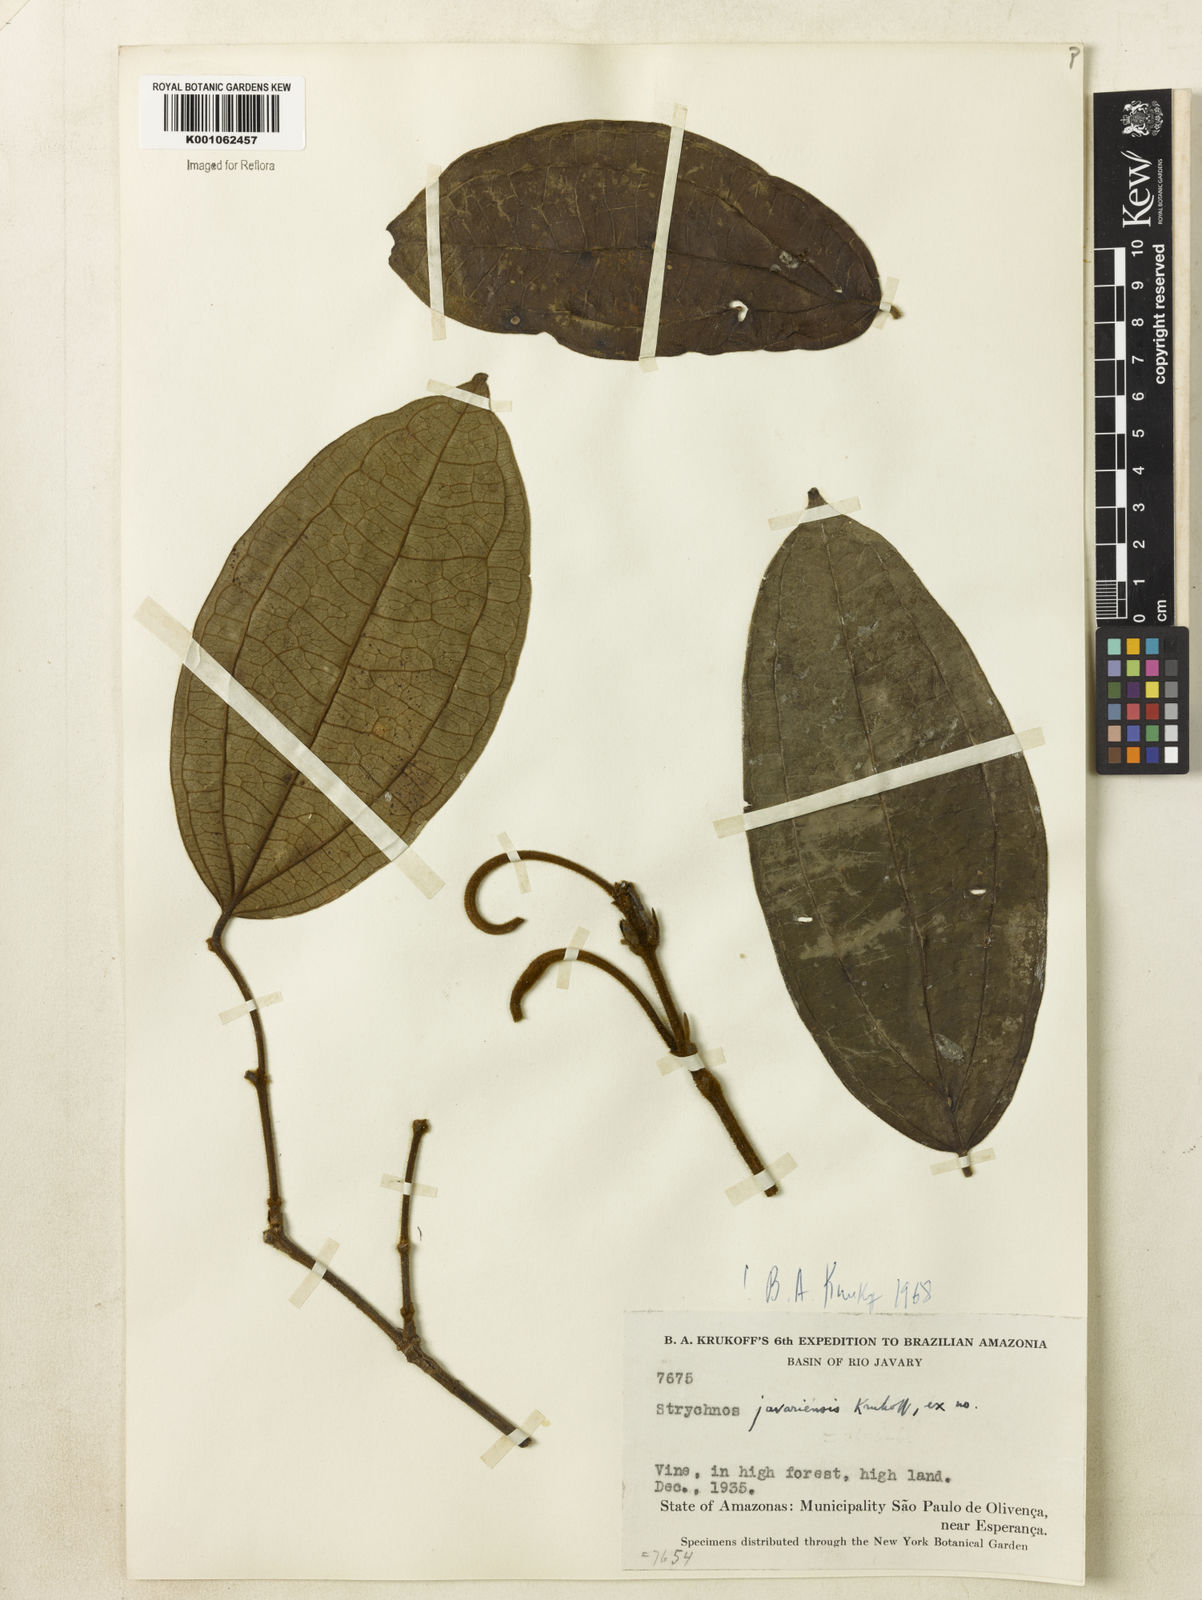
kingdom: Plantae
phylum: Tracheophyta
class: Magnoliopsida
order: Gentianales
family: Loganiaceae
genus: Strychnos
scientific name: Strychnos javariensis
